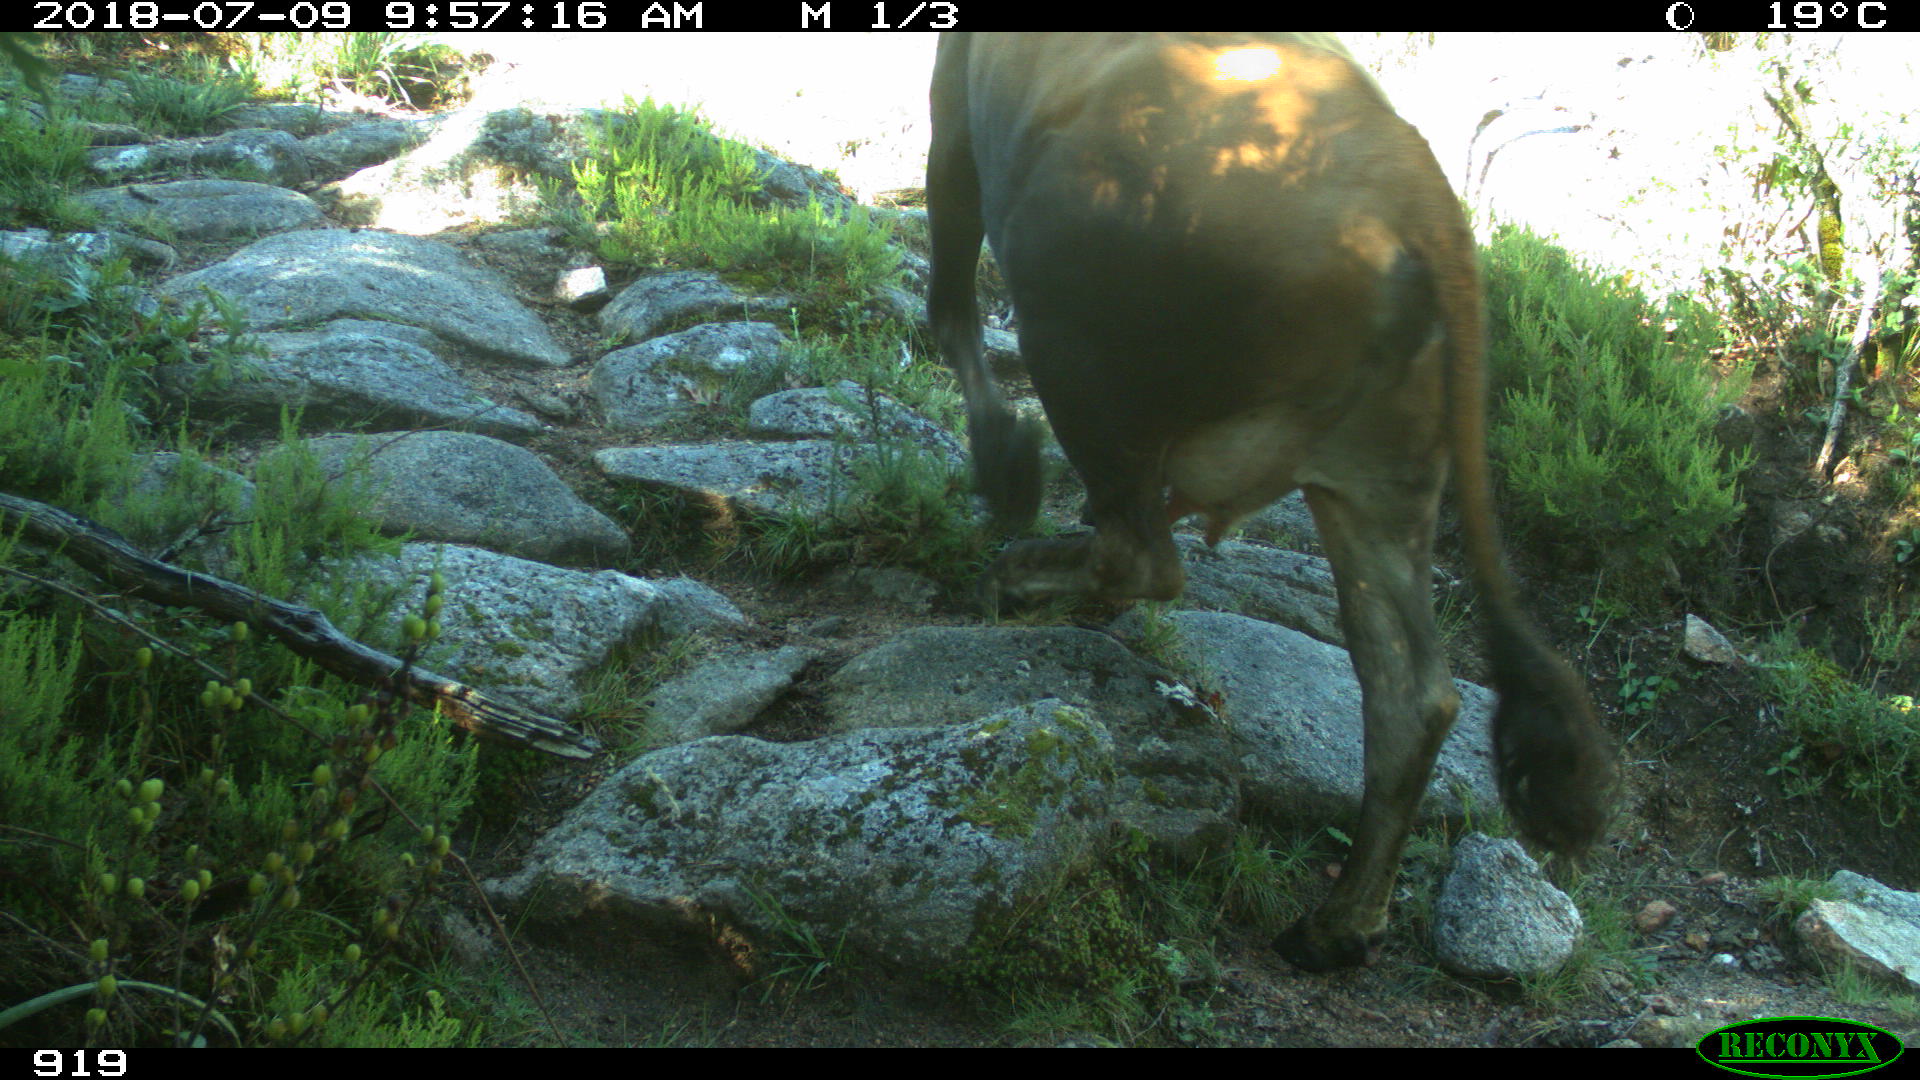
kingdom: Animalia
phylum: Chordata
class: Mammalia
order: Artiodactyla
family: Bovidae
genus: Bos
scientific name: Bos taurus
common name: Domesticated cattle
